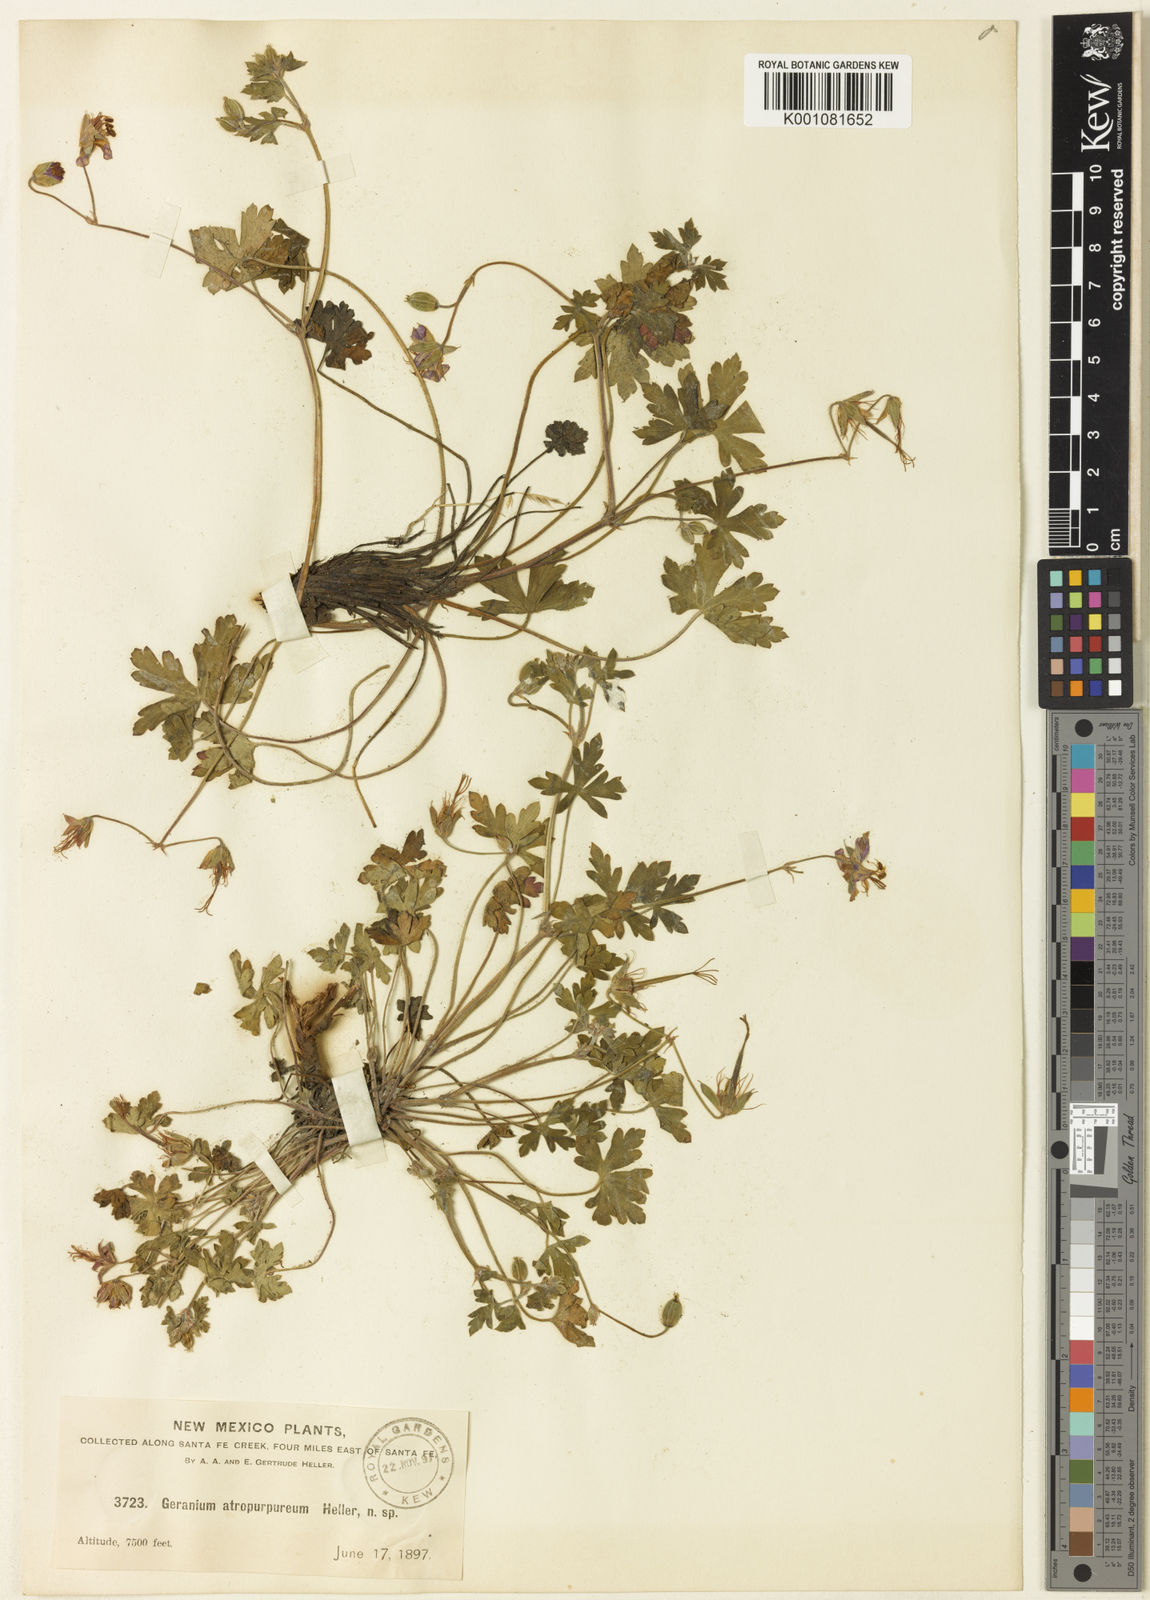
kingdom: Plantae
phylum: Tracheophyta
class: Magnoliopsida
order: Geraniales
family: Geraniaceae
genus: Geranium
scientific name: Geranium caespitosum
